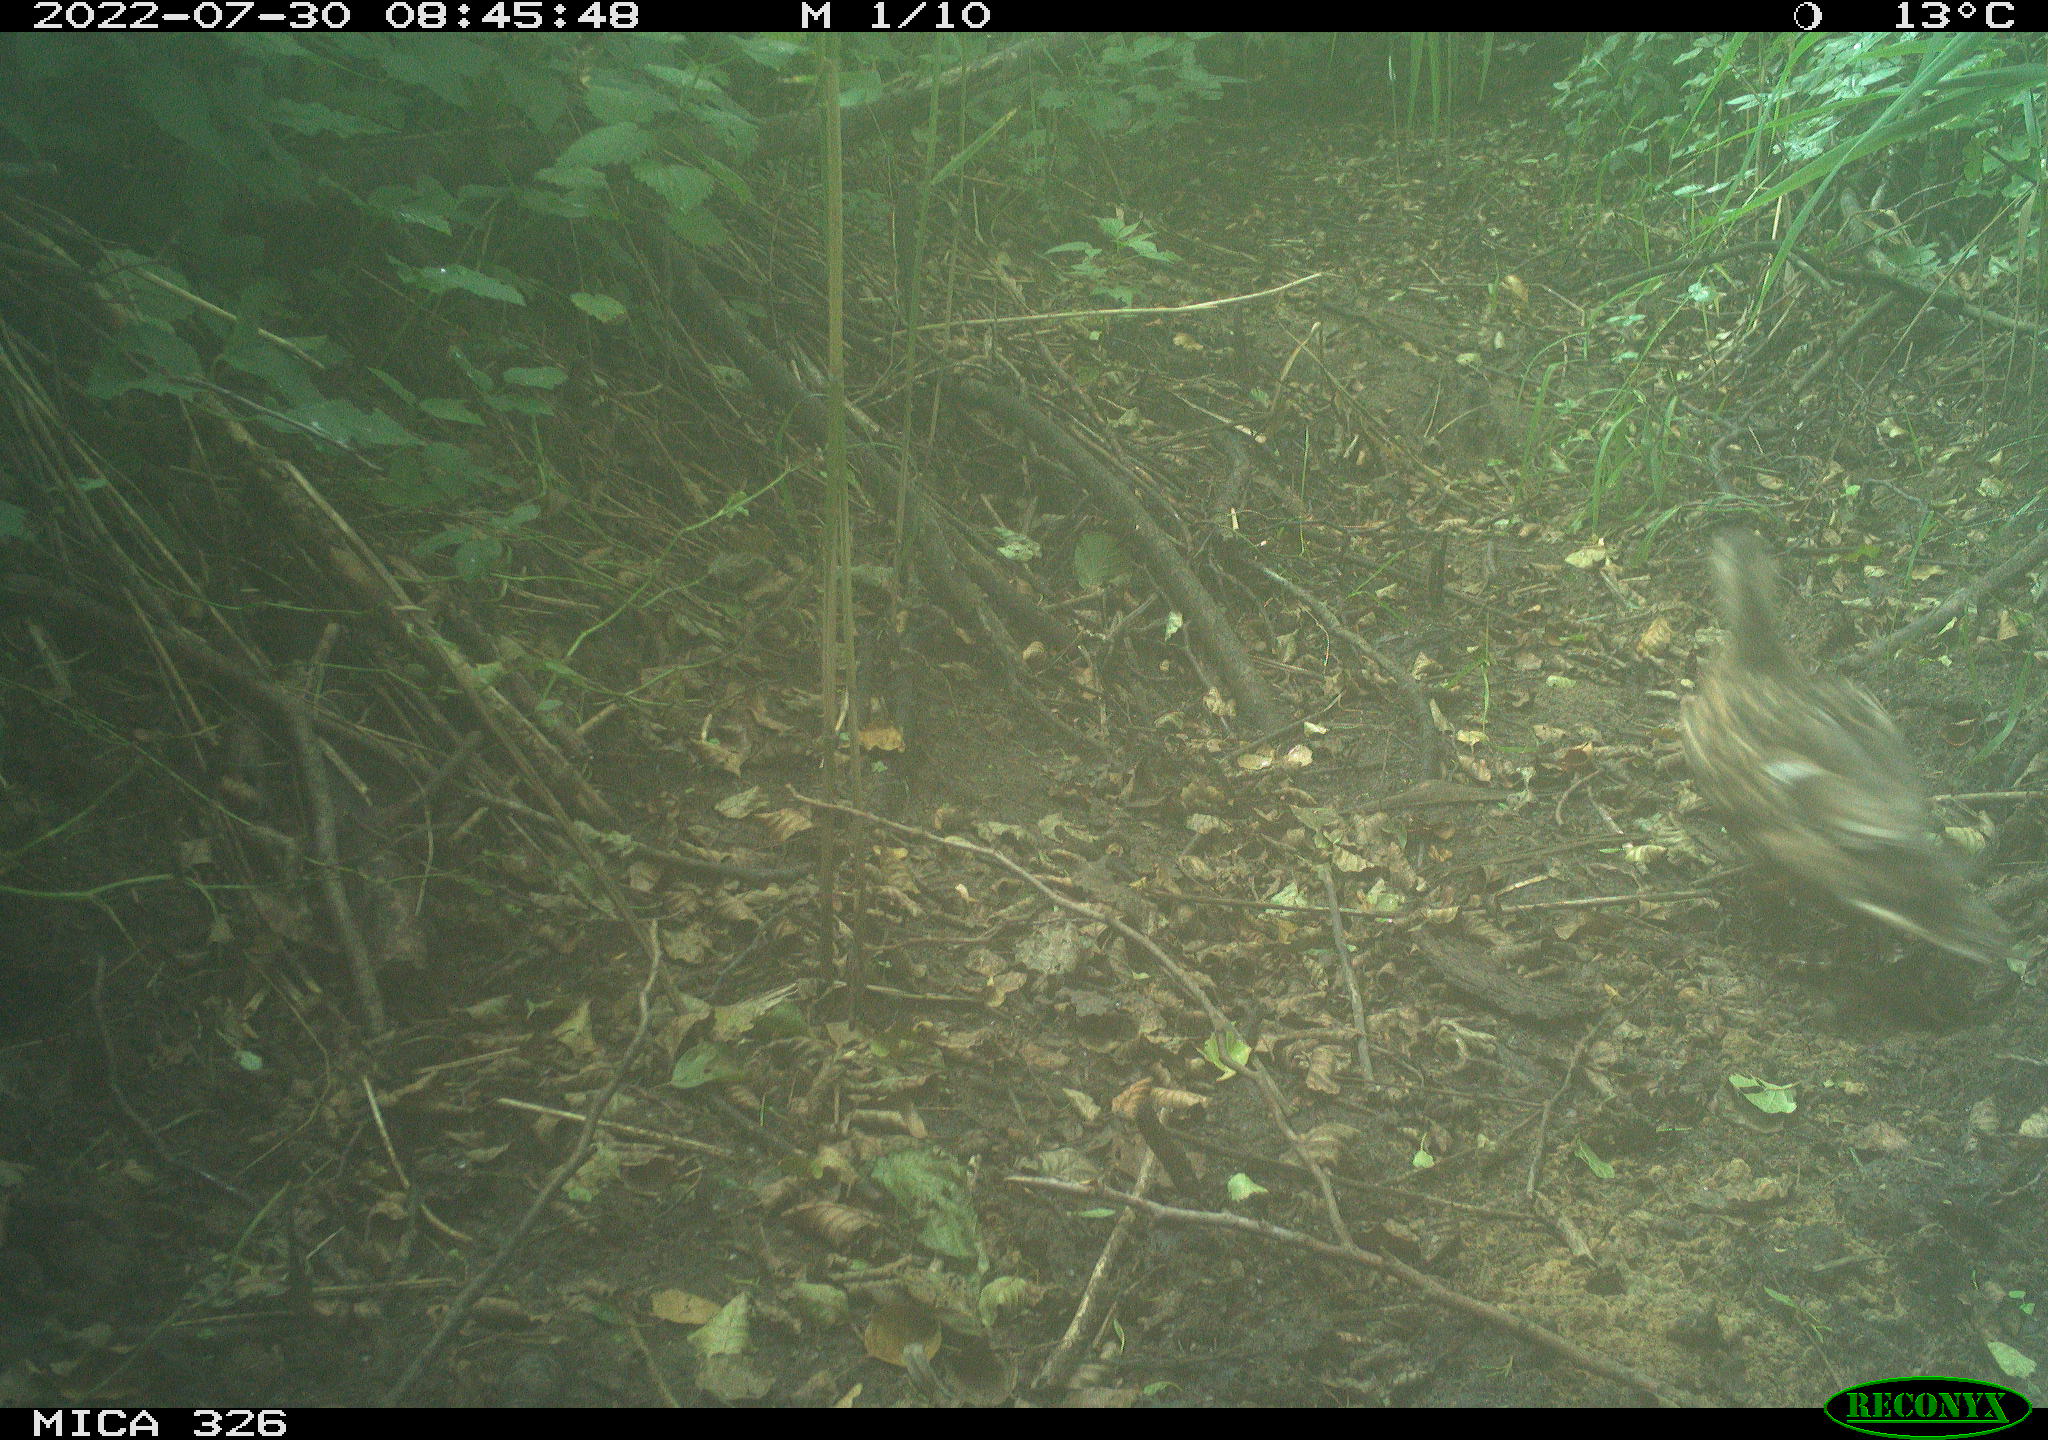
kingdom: Animalia
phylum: Chordata
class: Aves
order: Anseriformes
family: Anatidae
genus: Anas
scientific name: Anas platyrhynchos
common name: Mallard
